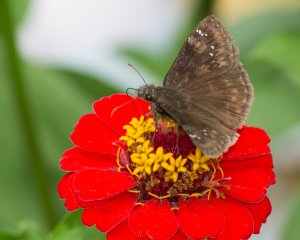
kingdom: Animalia
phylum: Arthropoda
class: Insecta
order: Lepidoptera
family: Hesperiidae
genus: Gesta
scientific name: Gesta
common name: Wild Indigo Duskywing
